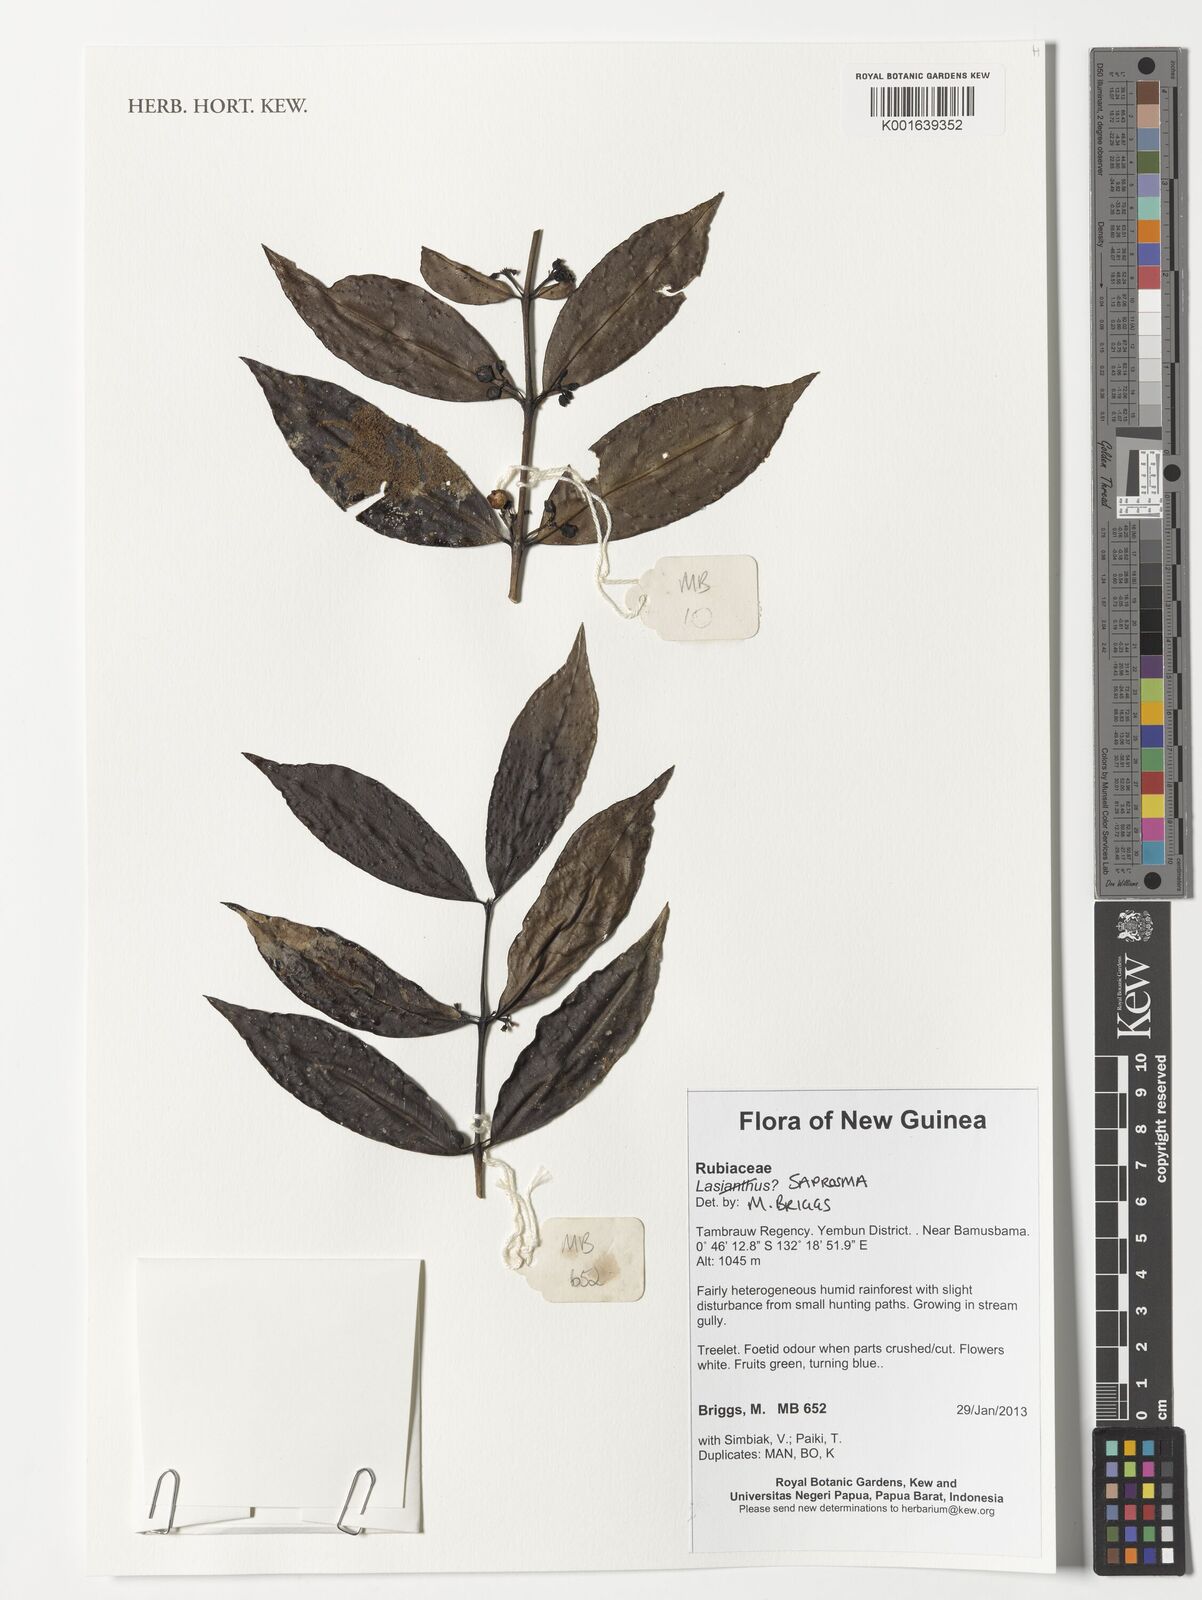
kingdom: Plantae
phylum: Tracheophyta
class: Magnoliopsida
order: Gentianales
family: Rubiaceae
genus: Saprosma
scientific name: Saprosma
